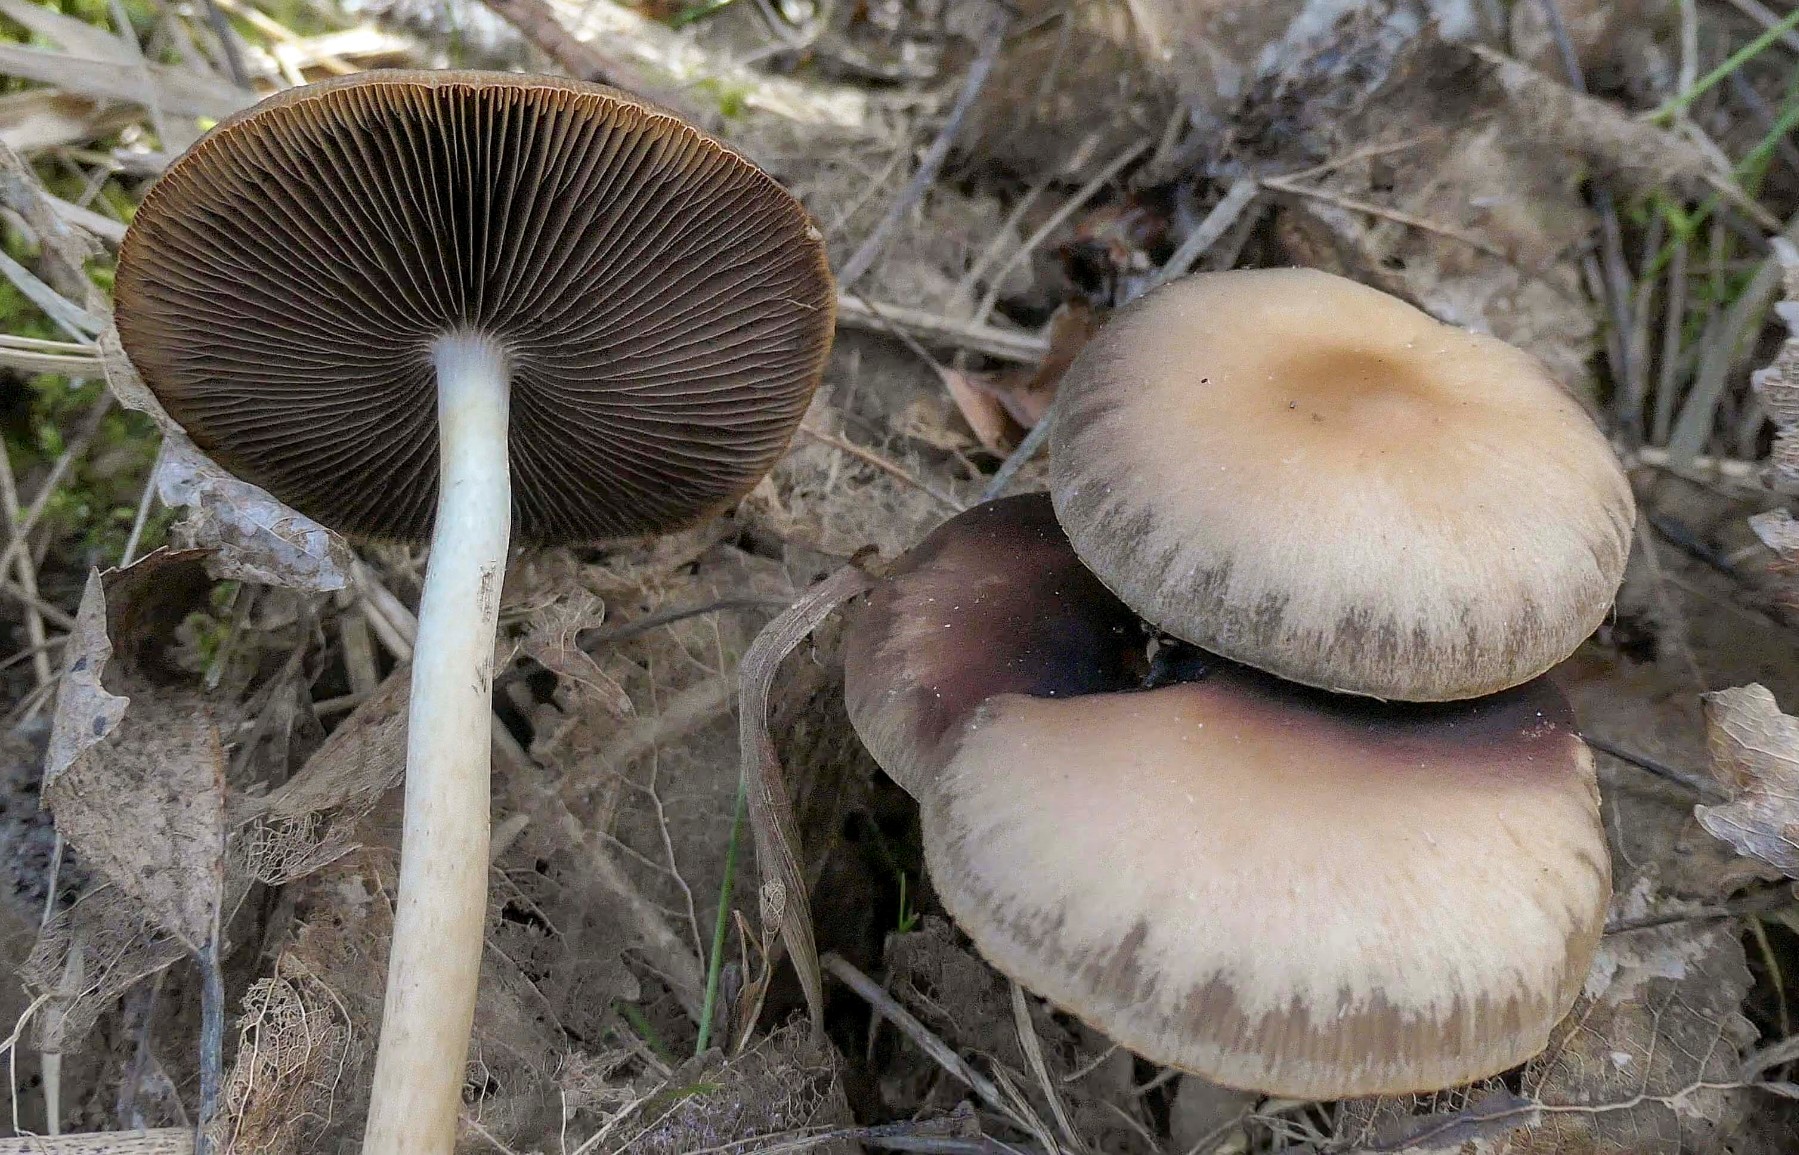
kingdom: Fungi
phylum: Basidiomycota
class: Agaricomycetes
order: Agaricales
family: Psathyrellaceae
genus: Psathyrella
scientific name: Psathyrella spadiceogrisea
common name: gråbrun mørkhat
